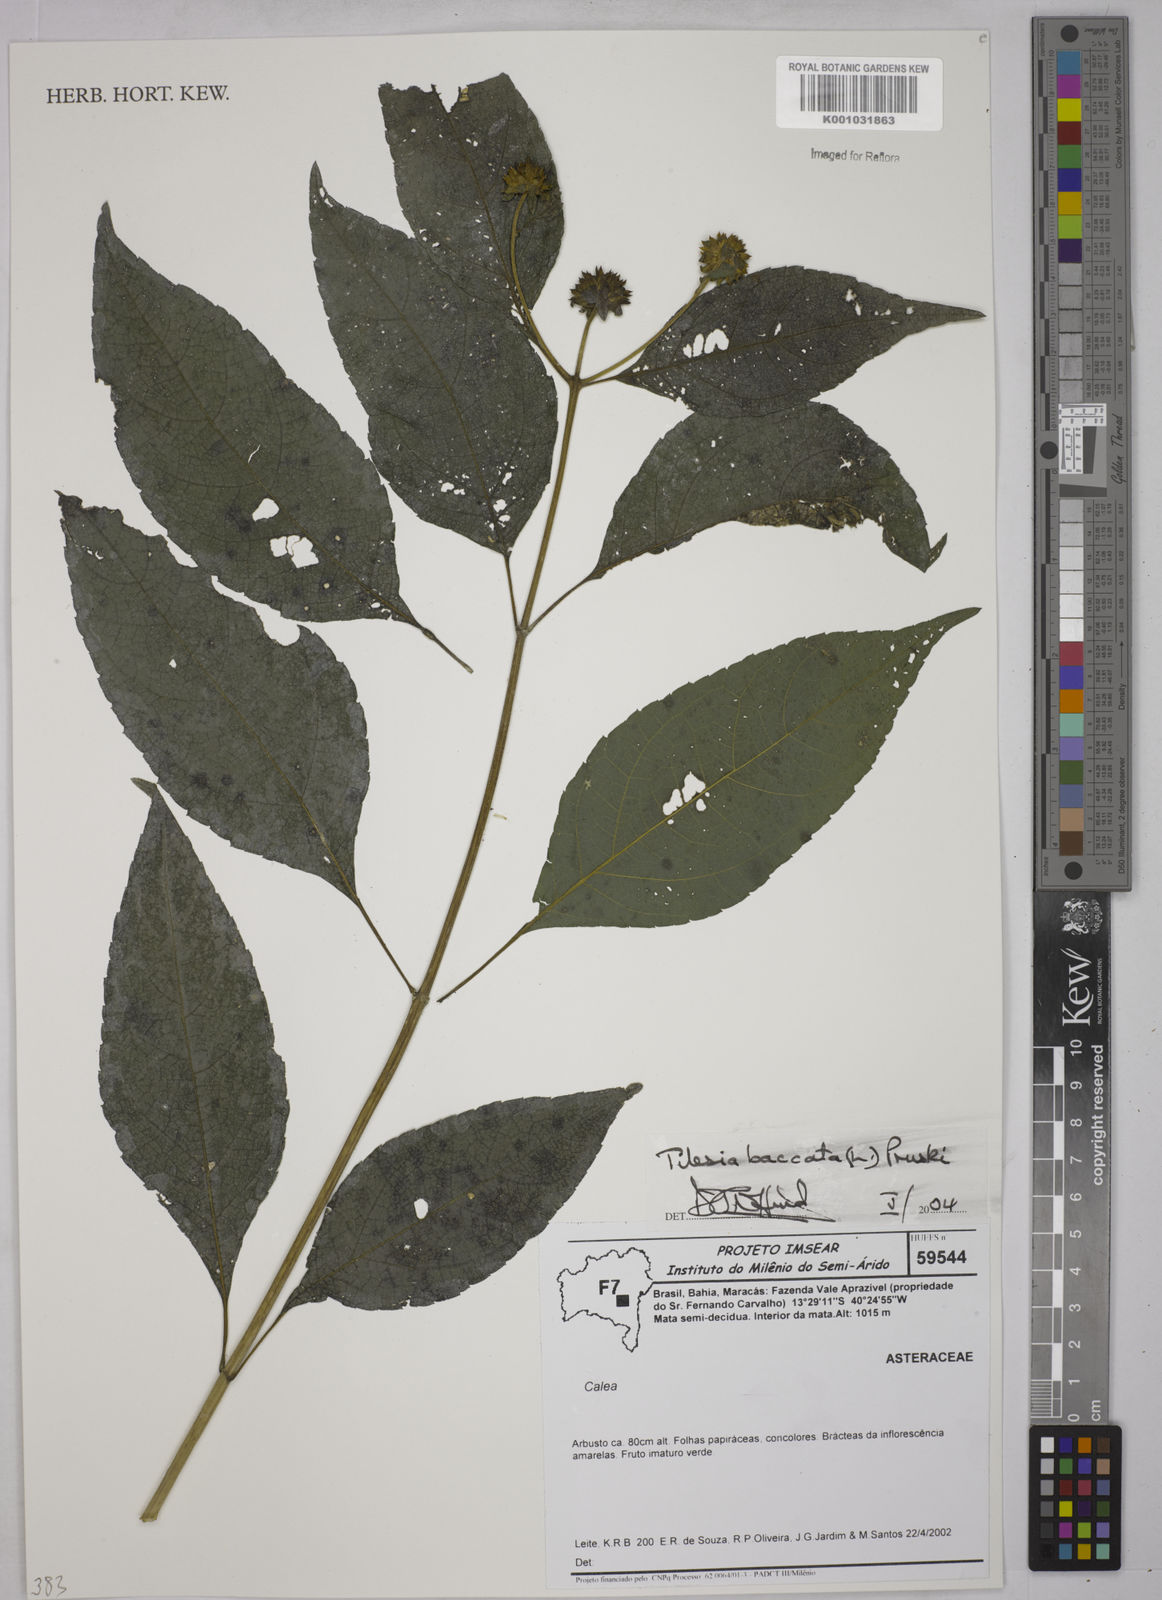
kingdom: Plantae
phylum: Tracheophyta
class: Magnoliopsida
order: Asterales
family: Asteraceae
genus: Tilesia
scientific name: Tilesia baccata
